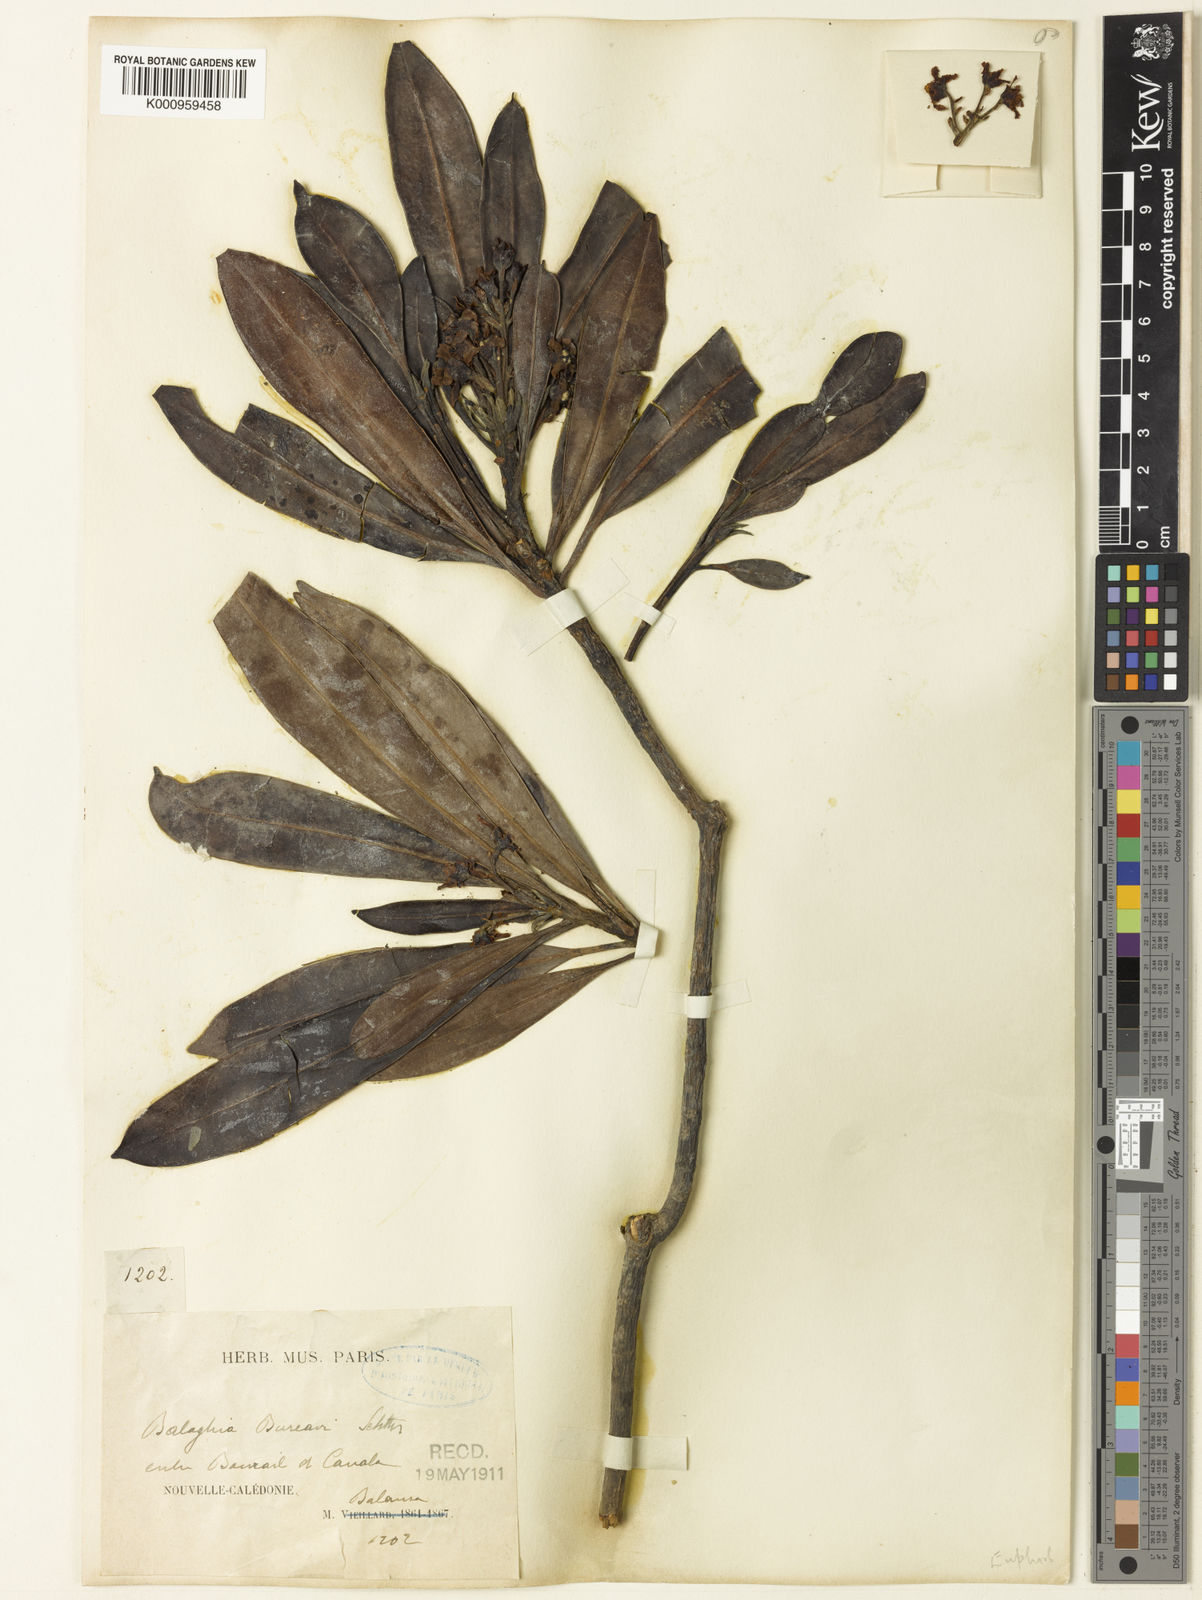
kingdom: Plantae
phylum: Tracheophyta
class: Magnoliopsida
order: Malpighiales
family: Euphorbiaceae
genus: Baloghia
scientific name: Baloghia bureavii
